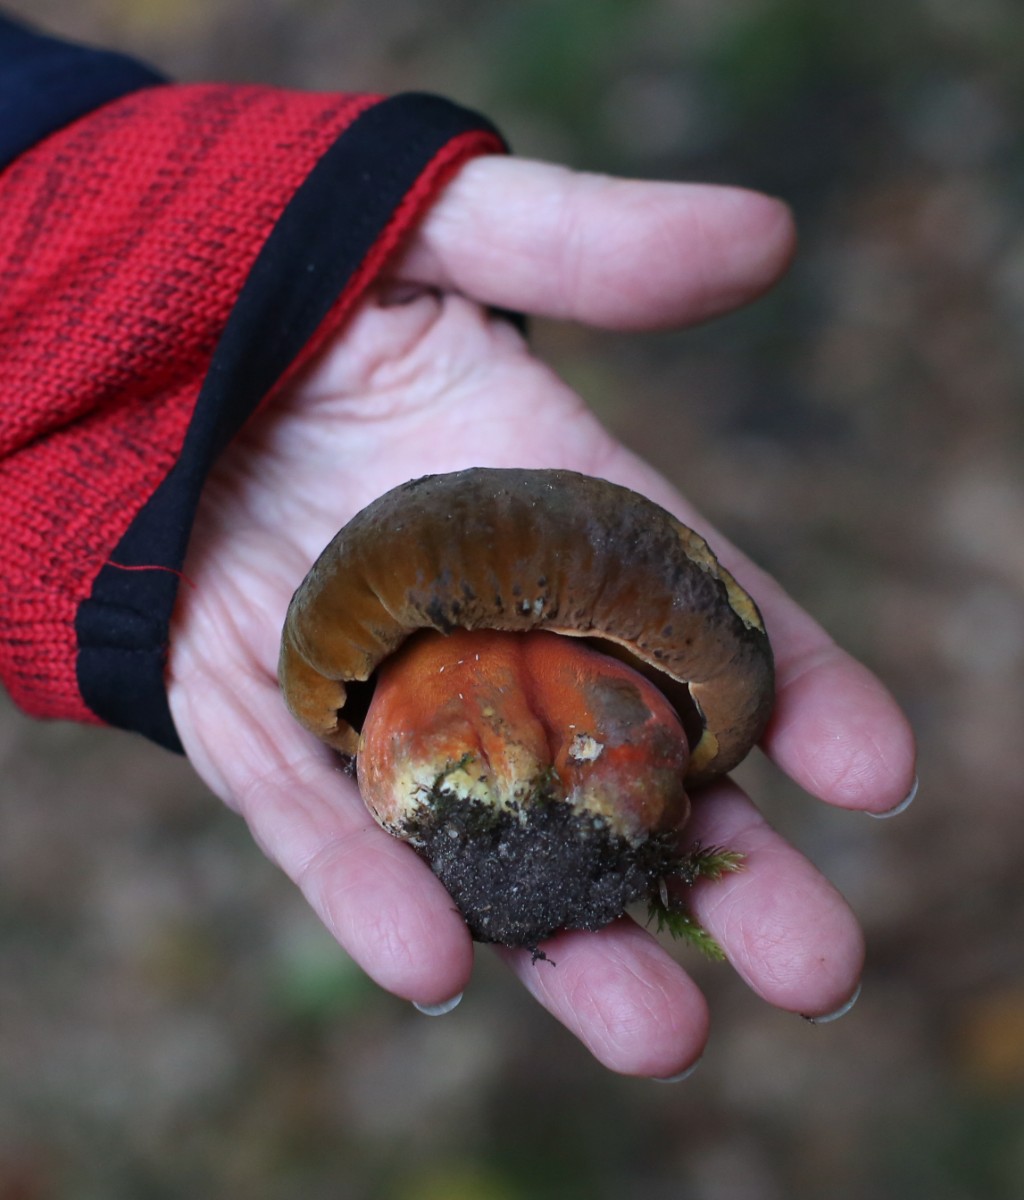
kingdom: Fungi
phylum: Basidiomycota
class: Agaricomycetes
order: Boletales
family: Boletaceae
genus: Neoboletus
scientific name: Neoboletus erythropus
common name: punktstokket indigorørhat
